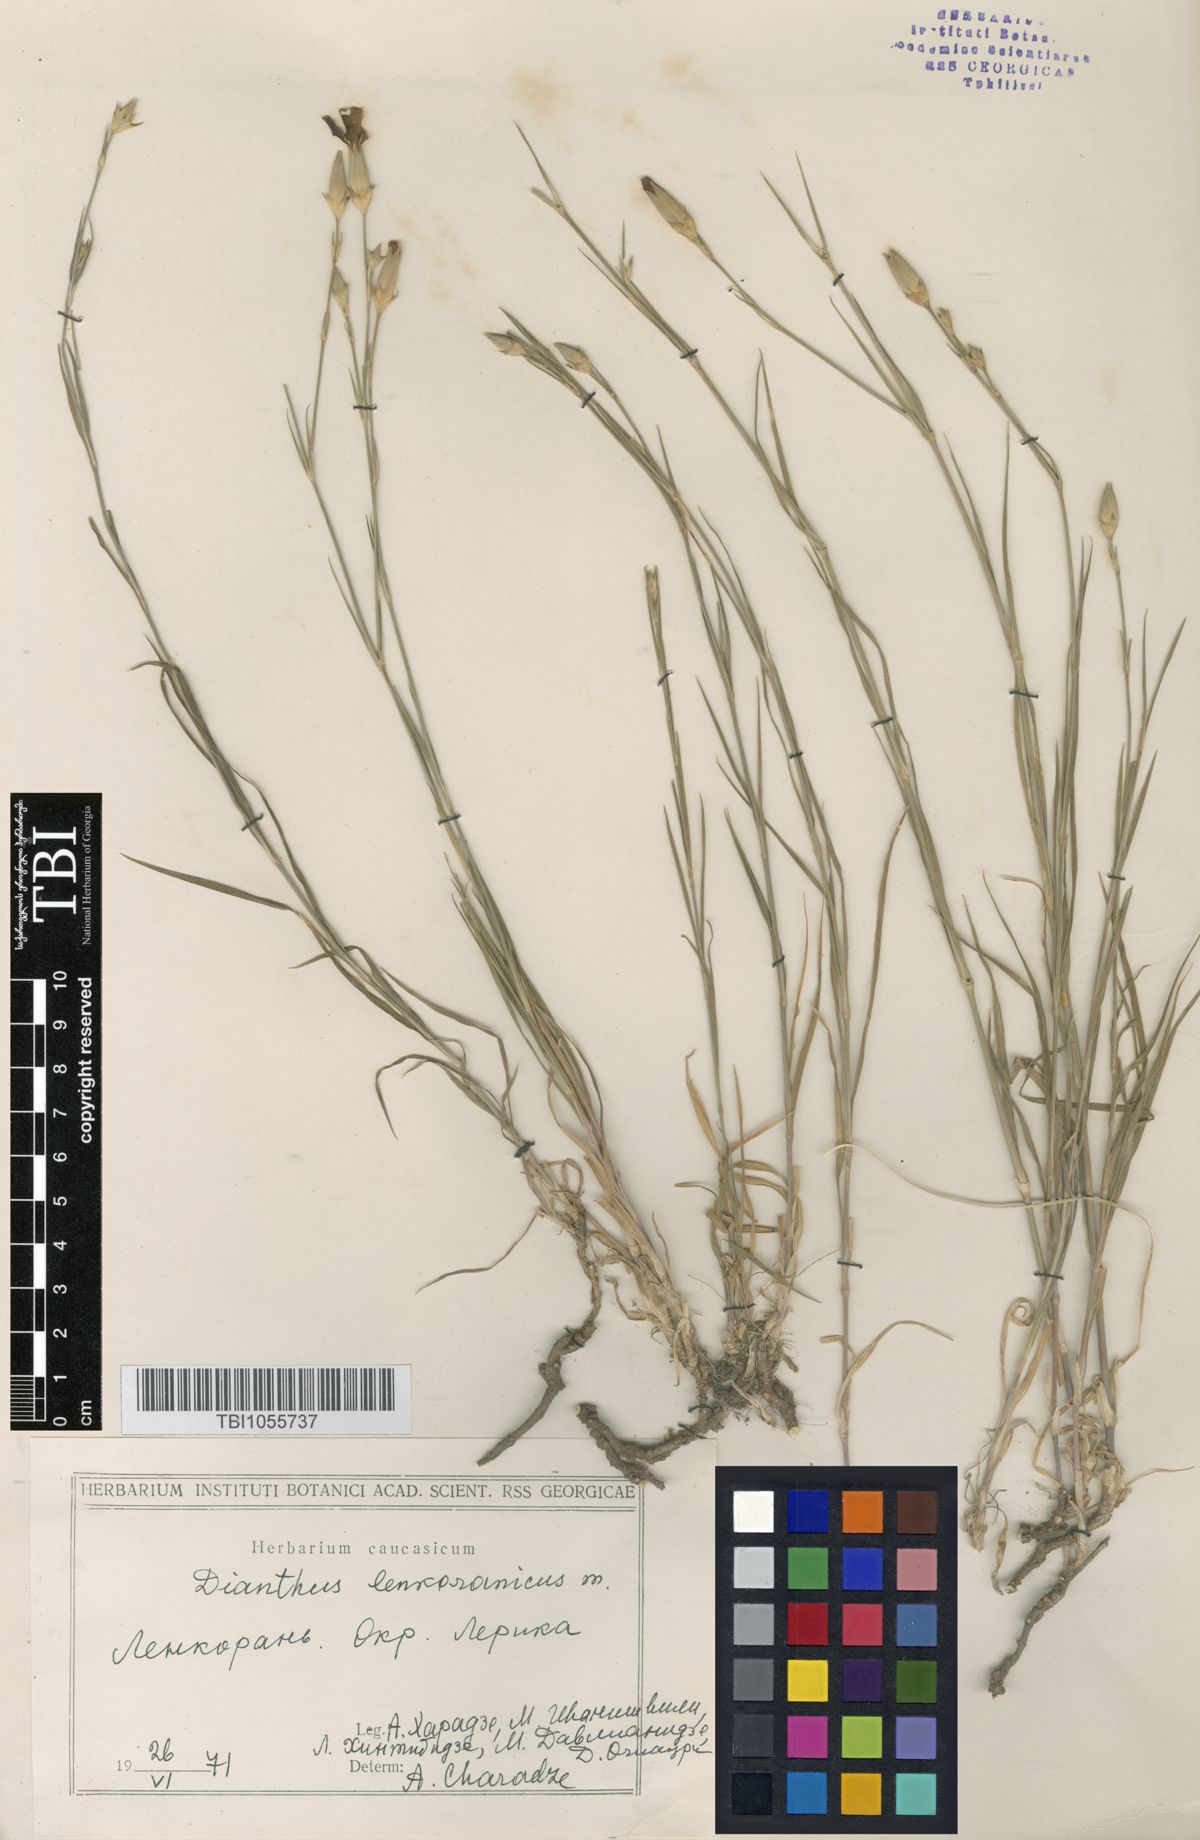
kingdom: Plantae
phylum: Tracheophyta
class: Magnoliopsida
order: Caryophyllales
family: Caryophyllaceae
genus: Dianthus
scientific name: Dianthus
